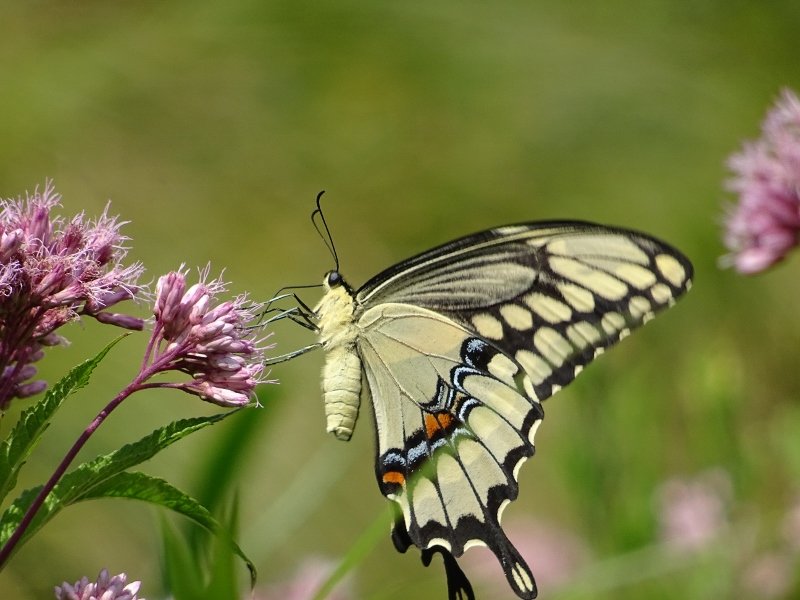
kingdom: Animalia
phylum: Arthropoda
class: Insecta
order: Lepidoptera
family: Papilionidae
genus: Papilio
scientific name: Papilio cresphontes
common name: Eastern Giant Swallowtail
